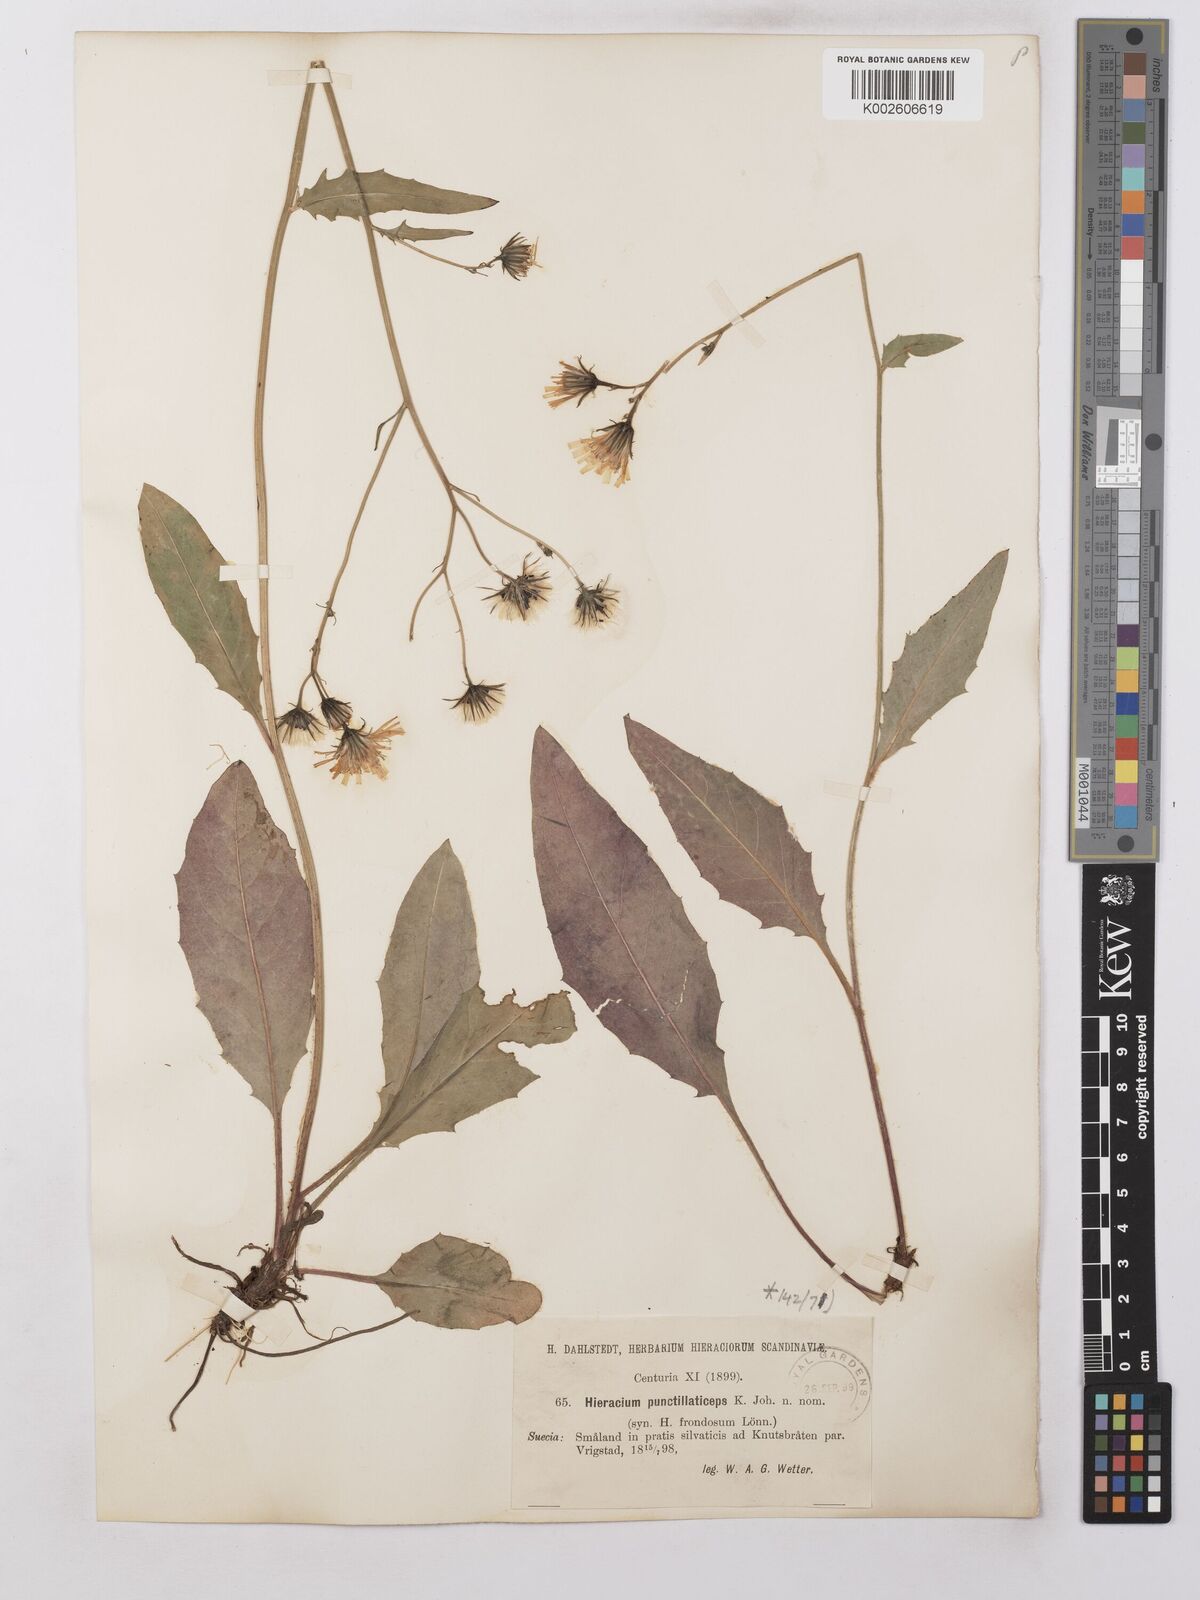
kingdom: Plantae
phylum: Tracheophyta
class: Magnoliopsida
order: Asterales
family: Asteraceae
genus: Hieracium
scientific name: Hieracium lachenalii
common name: Common hawkweed
